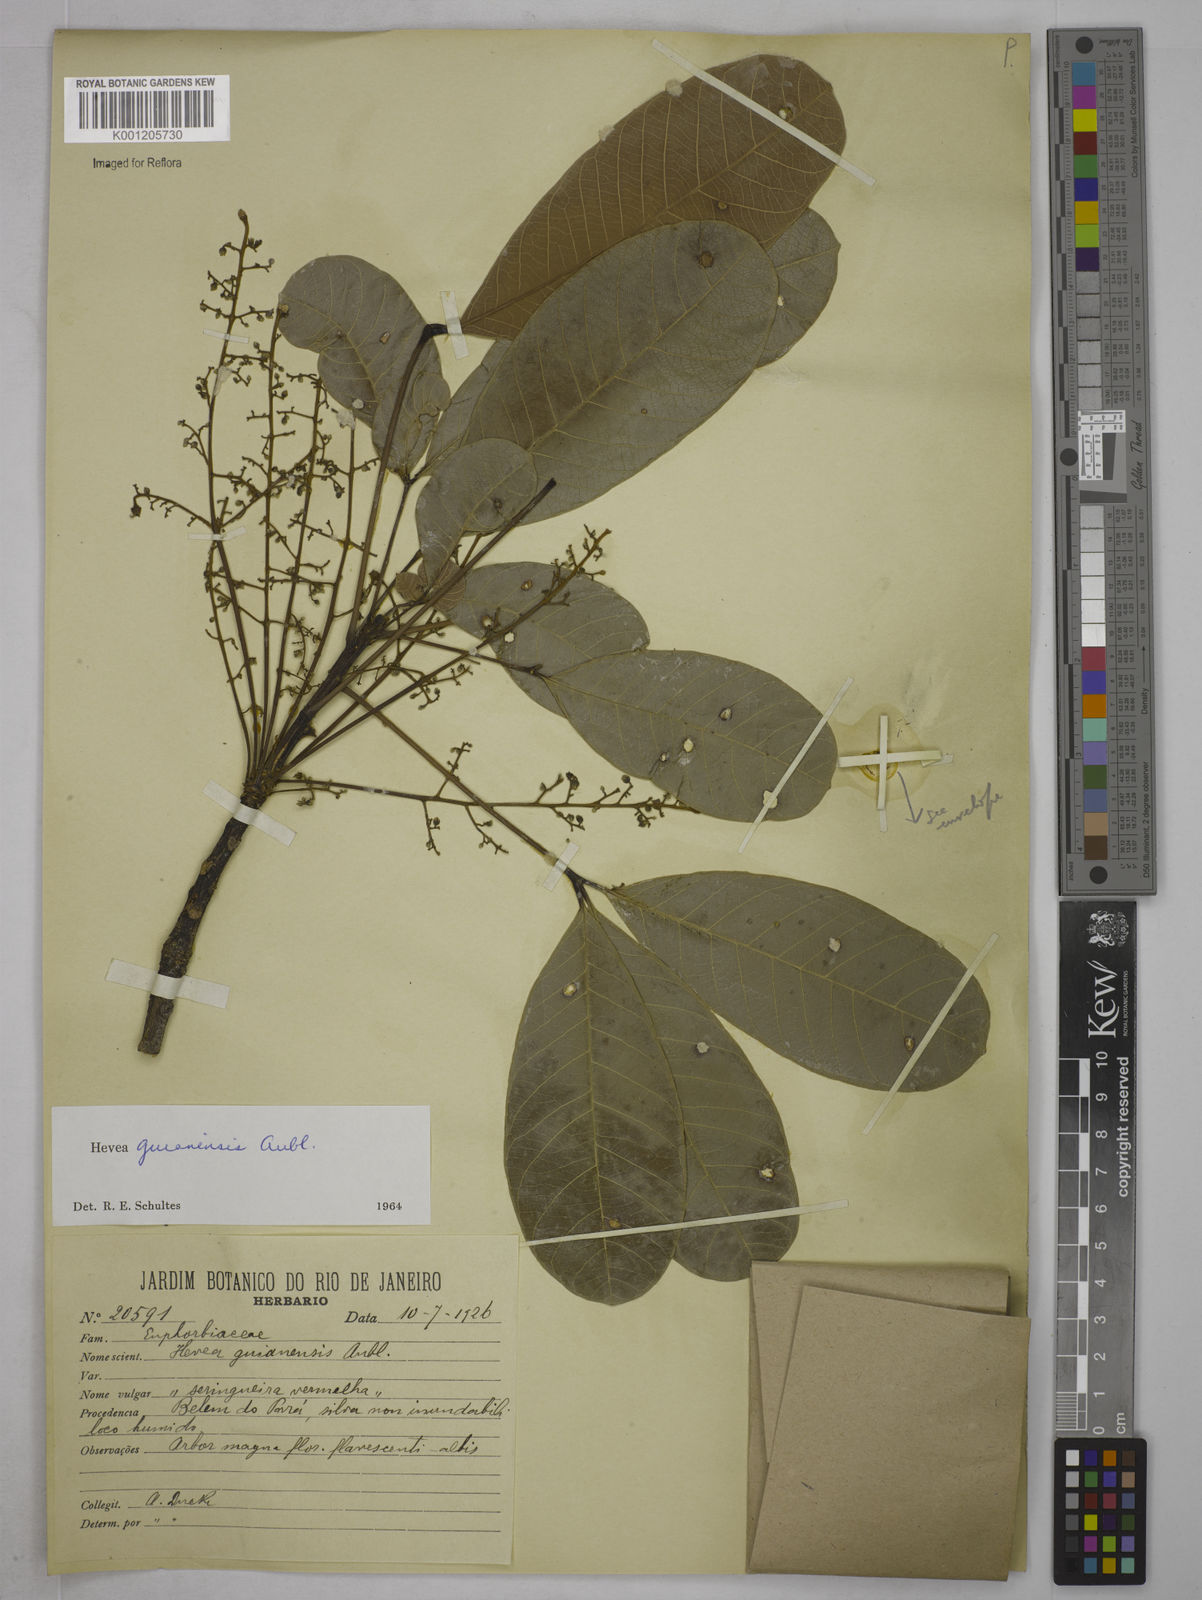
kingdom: Plantae
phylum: Tracheophyta
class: Magnoliopsida
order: Malpighiales
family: Euphorbiaceae
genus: Hevea
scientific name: Hevea guianensis
